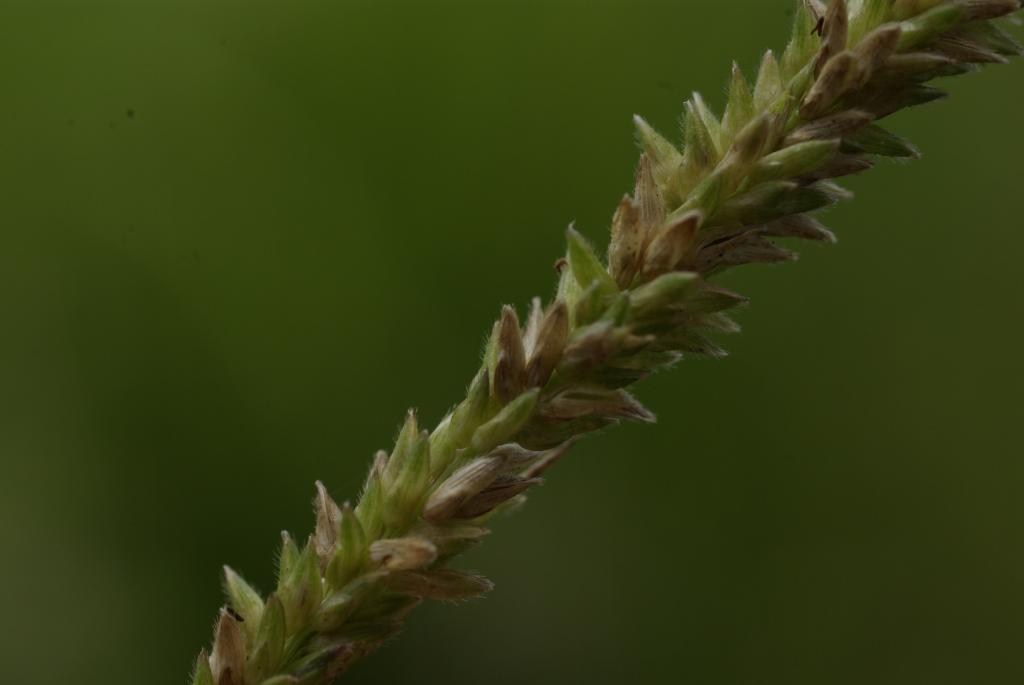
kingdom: Plantae
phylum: Tracheophyta
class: Liliopsida
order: Poales
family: Poaceae
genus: Sacciolepis
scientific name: Sacciolepis indica
